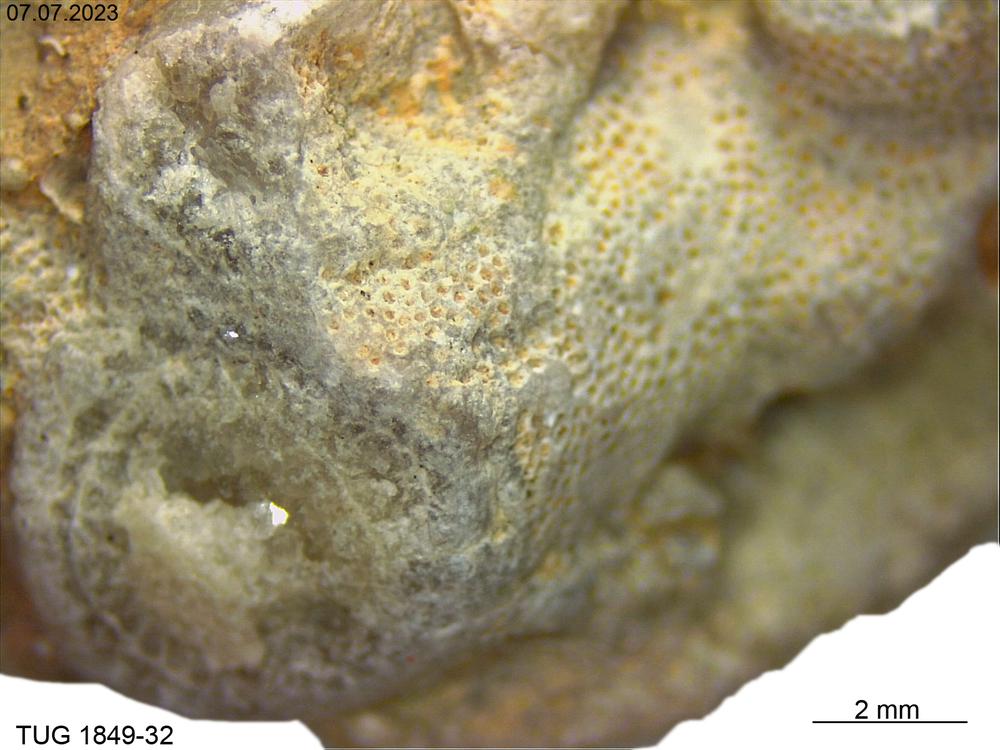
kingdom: Animalia
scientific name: Animalia
